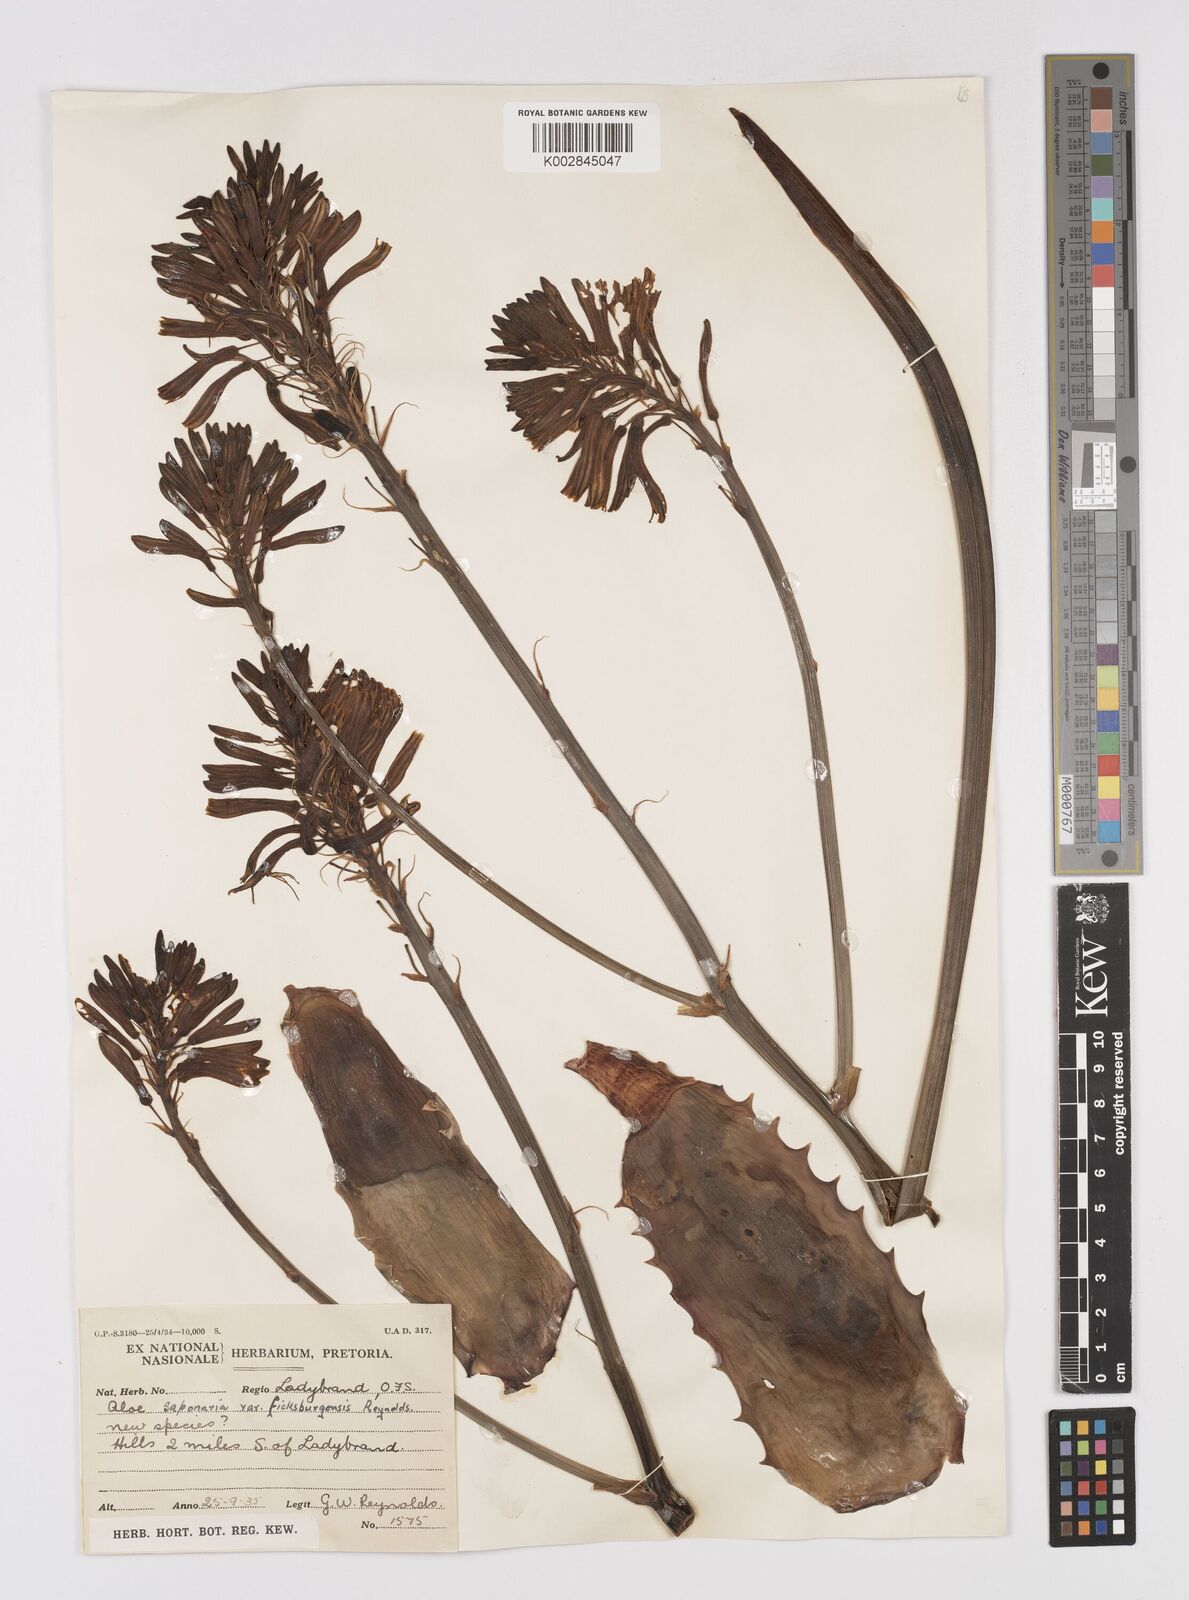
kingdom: Plantae
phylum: Tracheophyta
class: Liliopsida
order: Asparagales
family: Asphodelaceae
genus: Aloe
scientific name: Aloe maculata
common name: Broadleaf aloe
